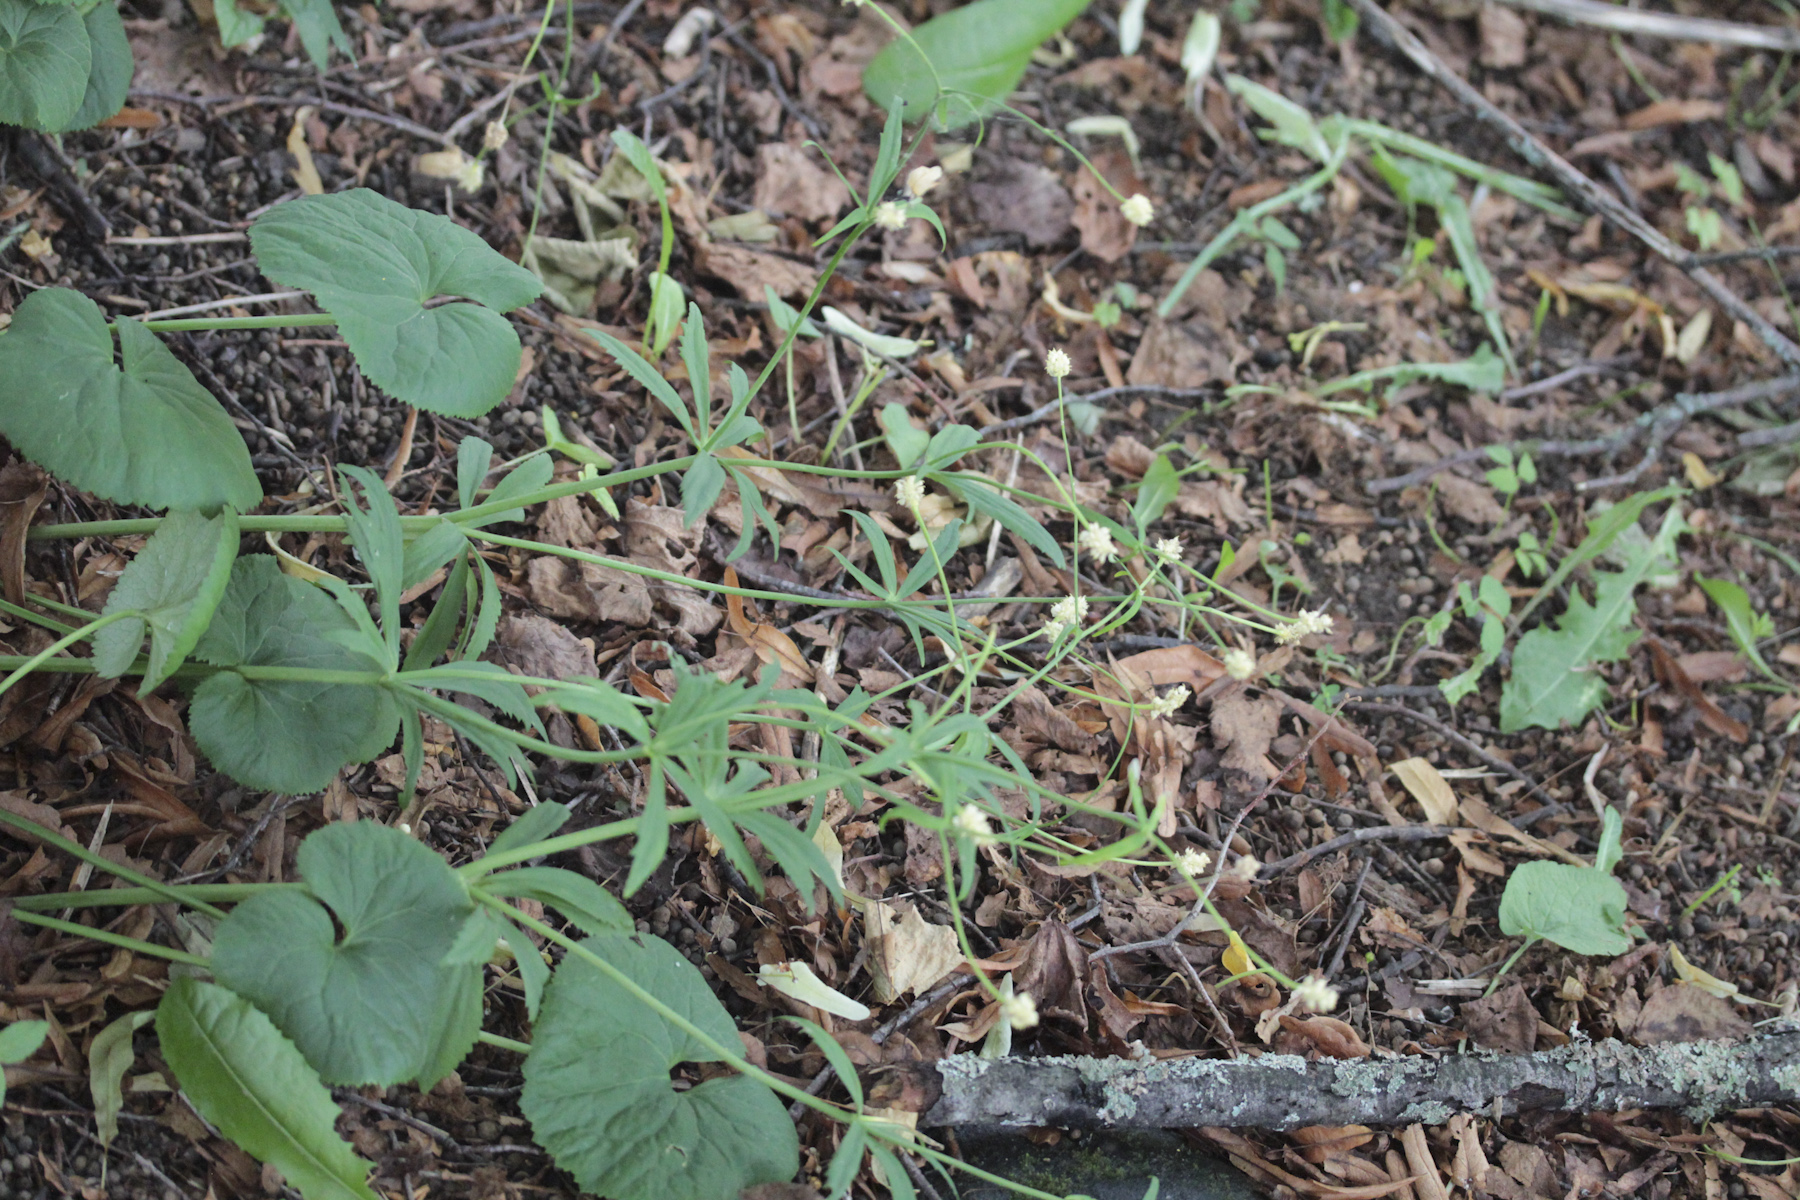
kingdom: Plantae
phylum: Tracheophyta
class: Magnoliopsida
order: Ranunculales
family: Ranunculaceae
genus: Ranunculus
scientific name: Ranunculus circinatifrons
